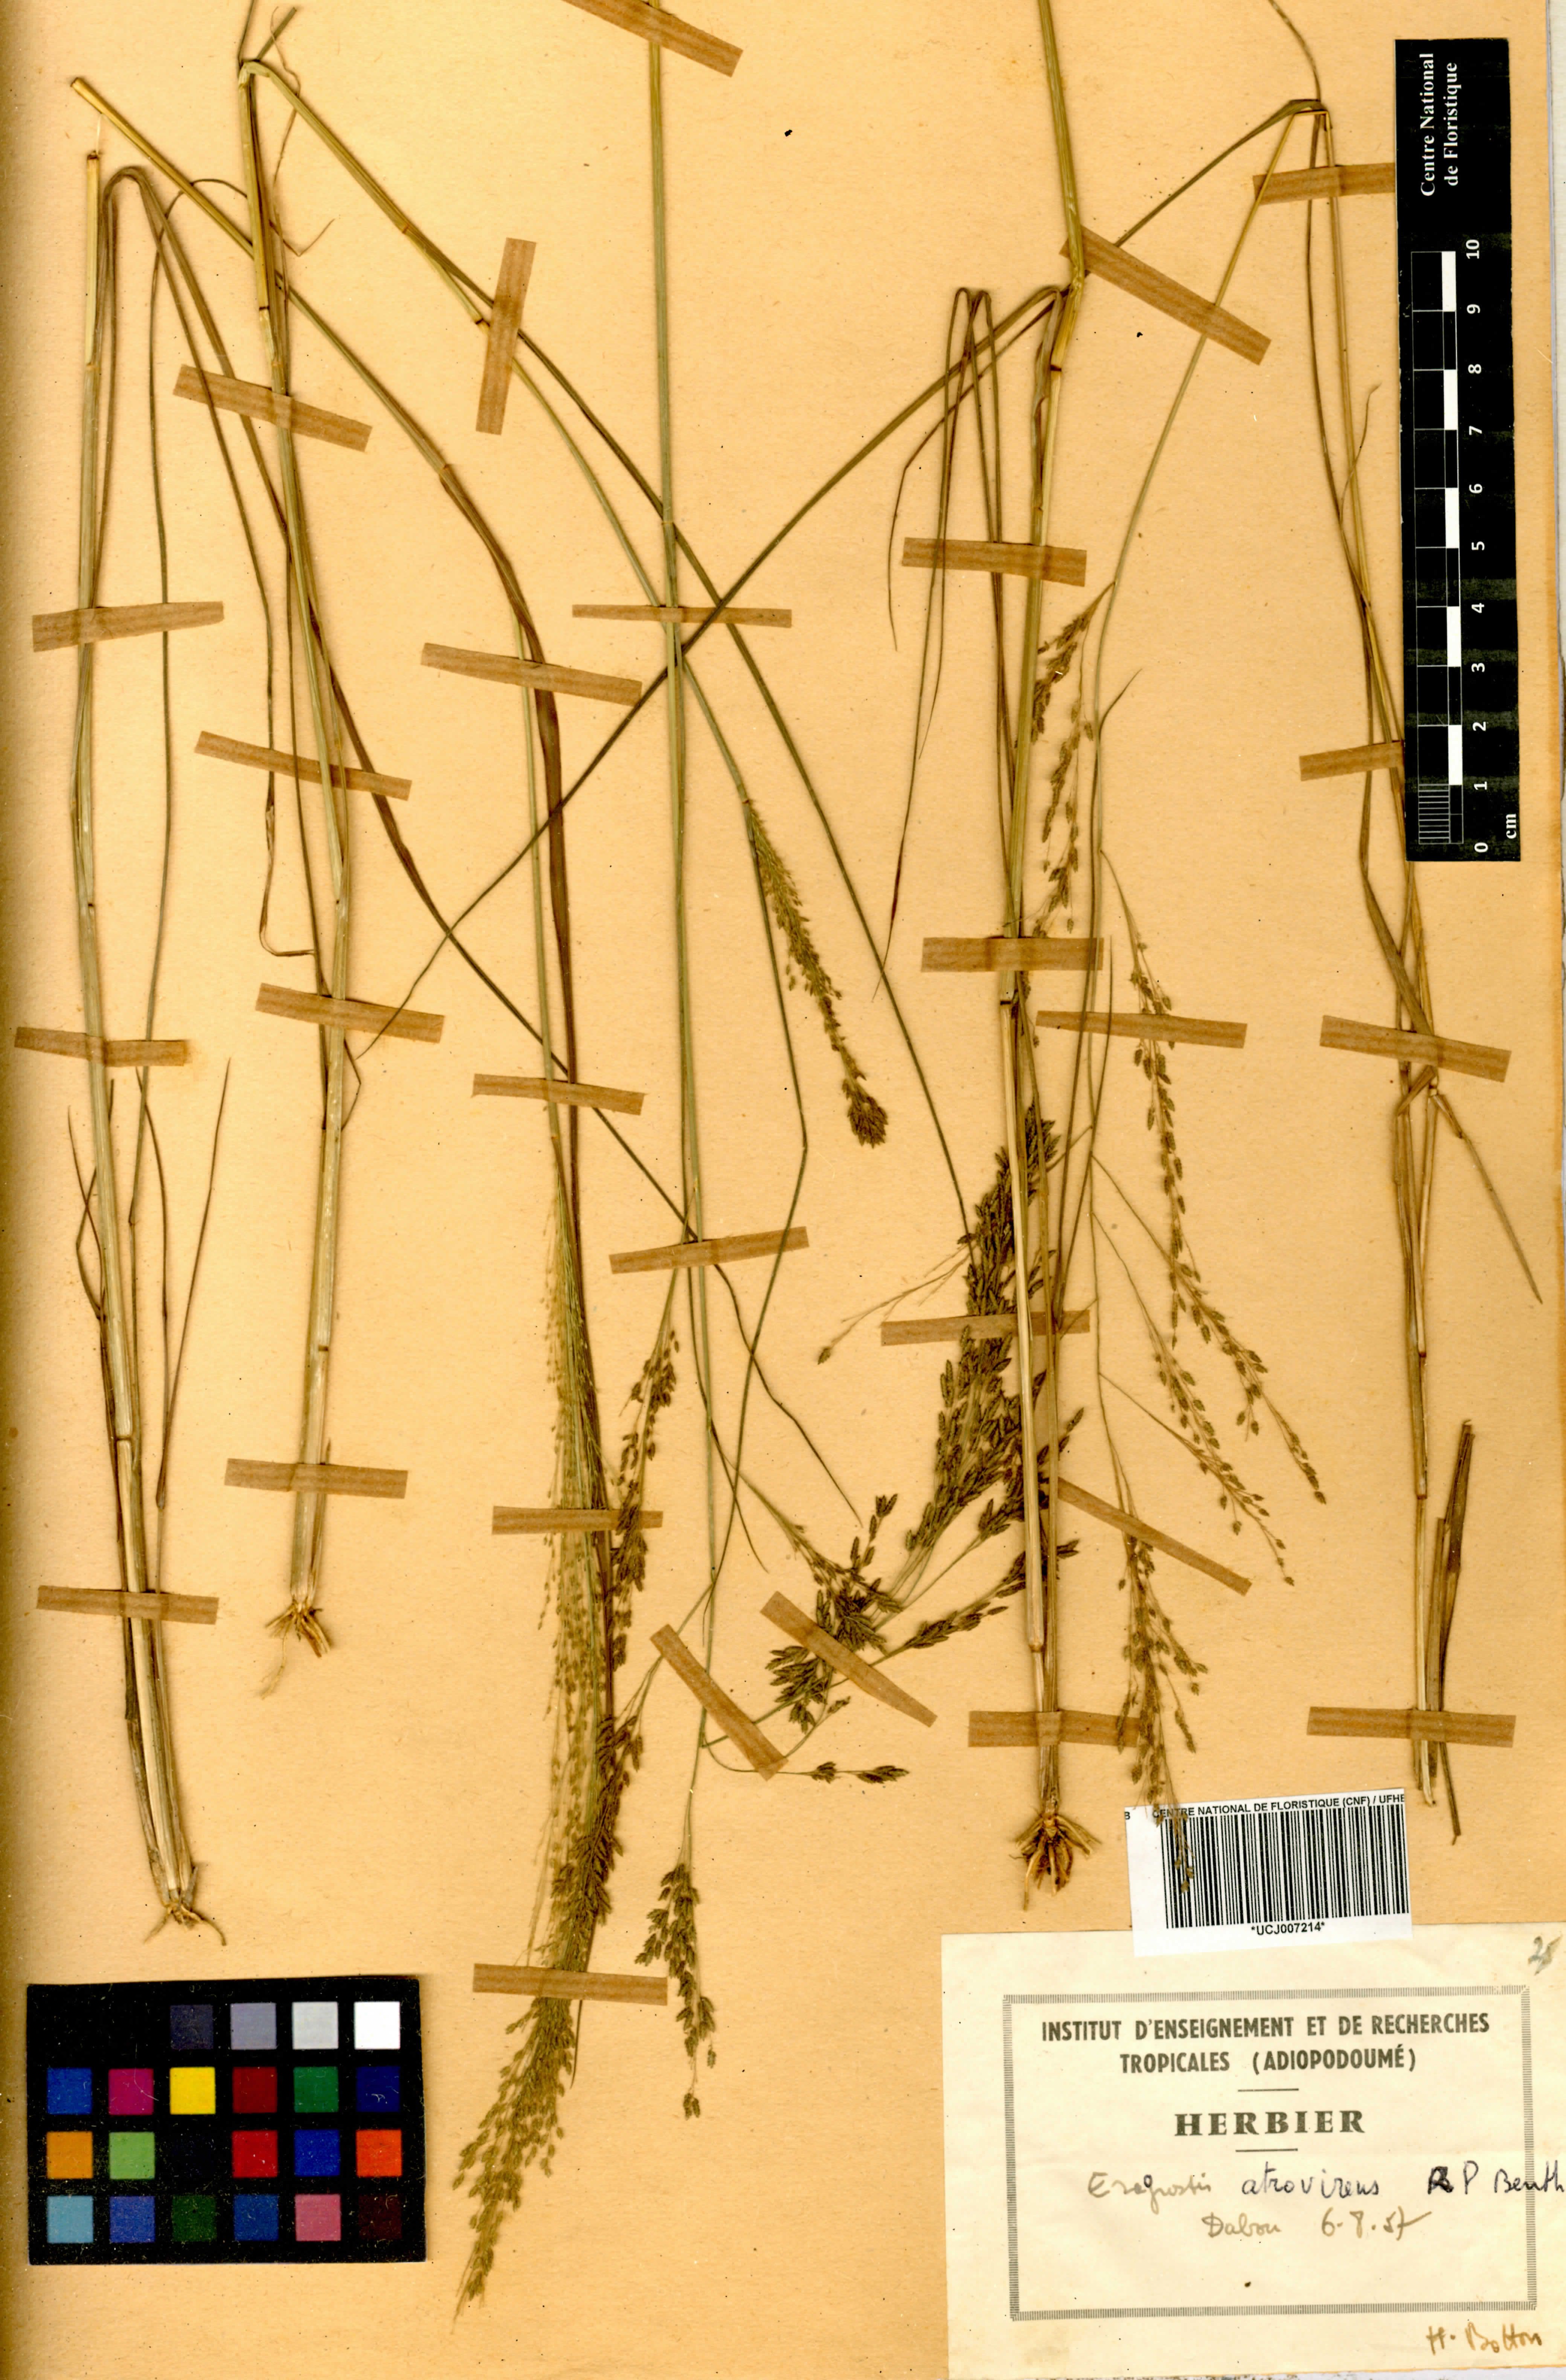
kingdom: Plantae
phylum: Tracheophyta
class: Liliopsida
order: Poales
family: Poaceae
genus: Eragrostis
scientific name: Eragrostis atrovirens
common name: Thalia lovegrass
